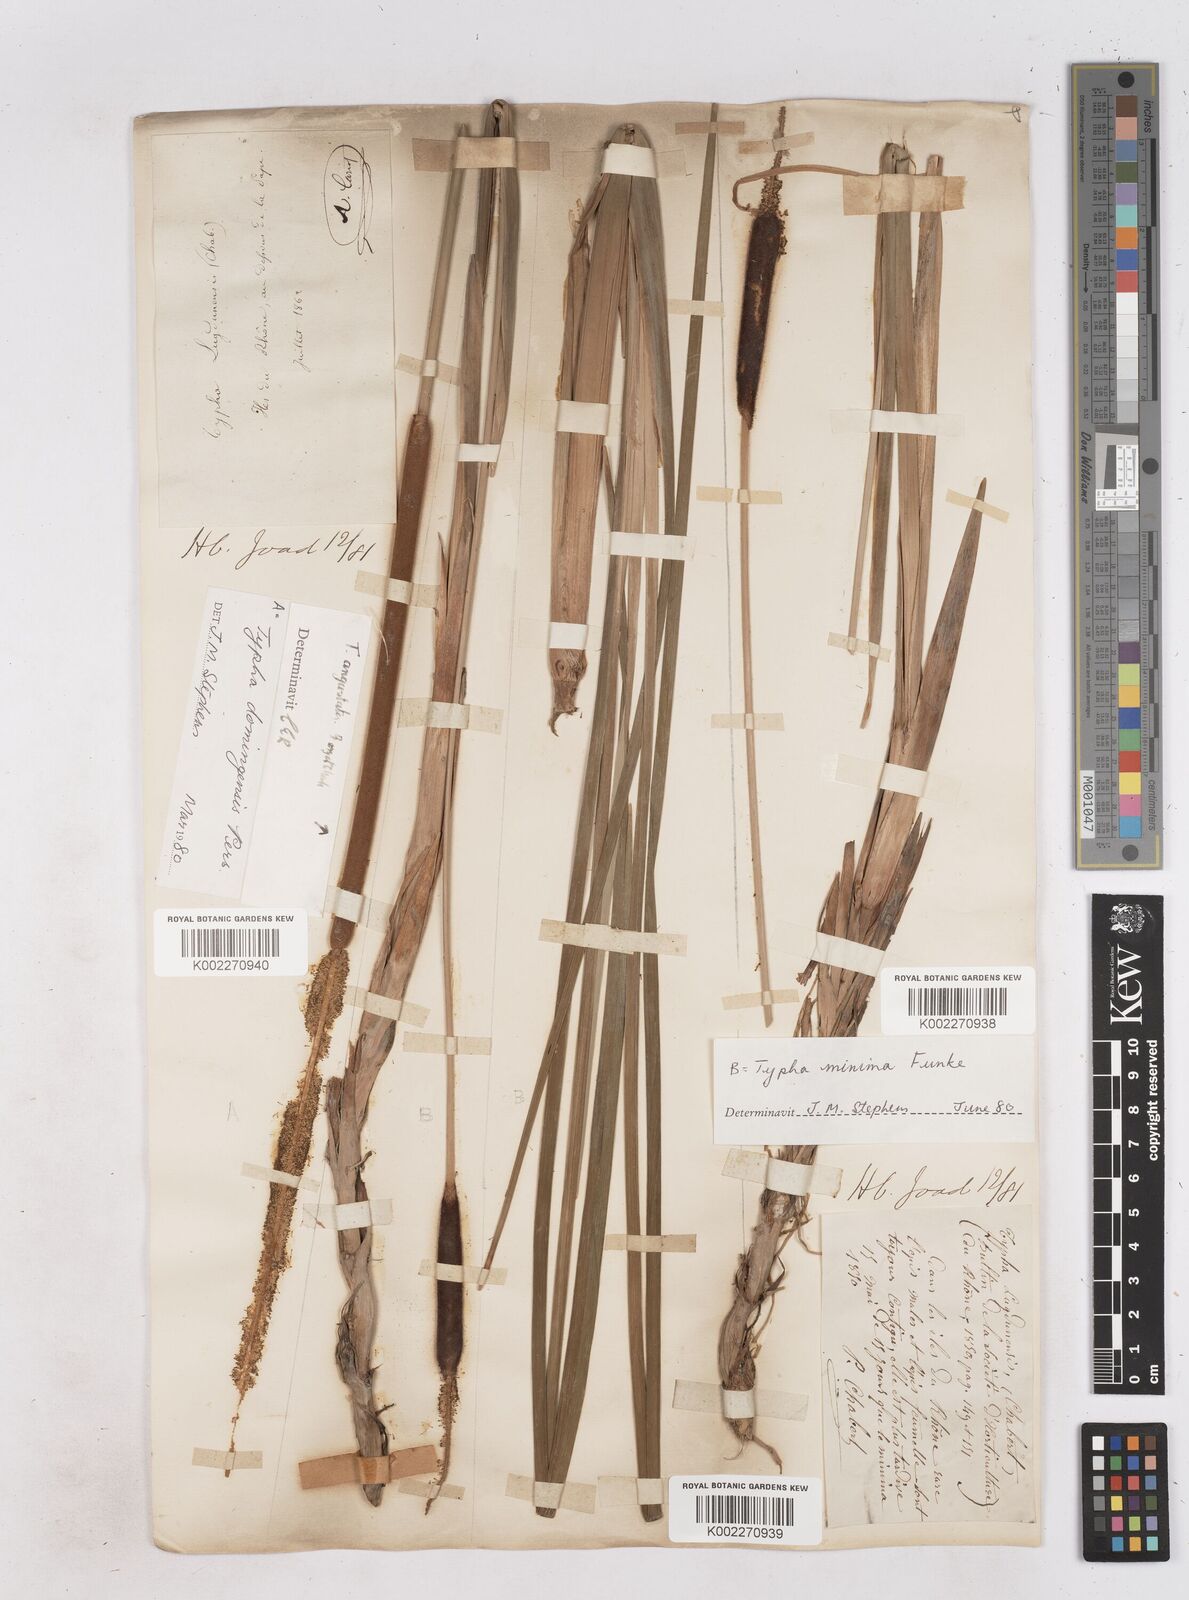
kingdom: Plantae
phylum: Tracheophyta
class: Liliopsida
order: Poales
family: Typhaceae
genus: Typha
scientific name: Typha
